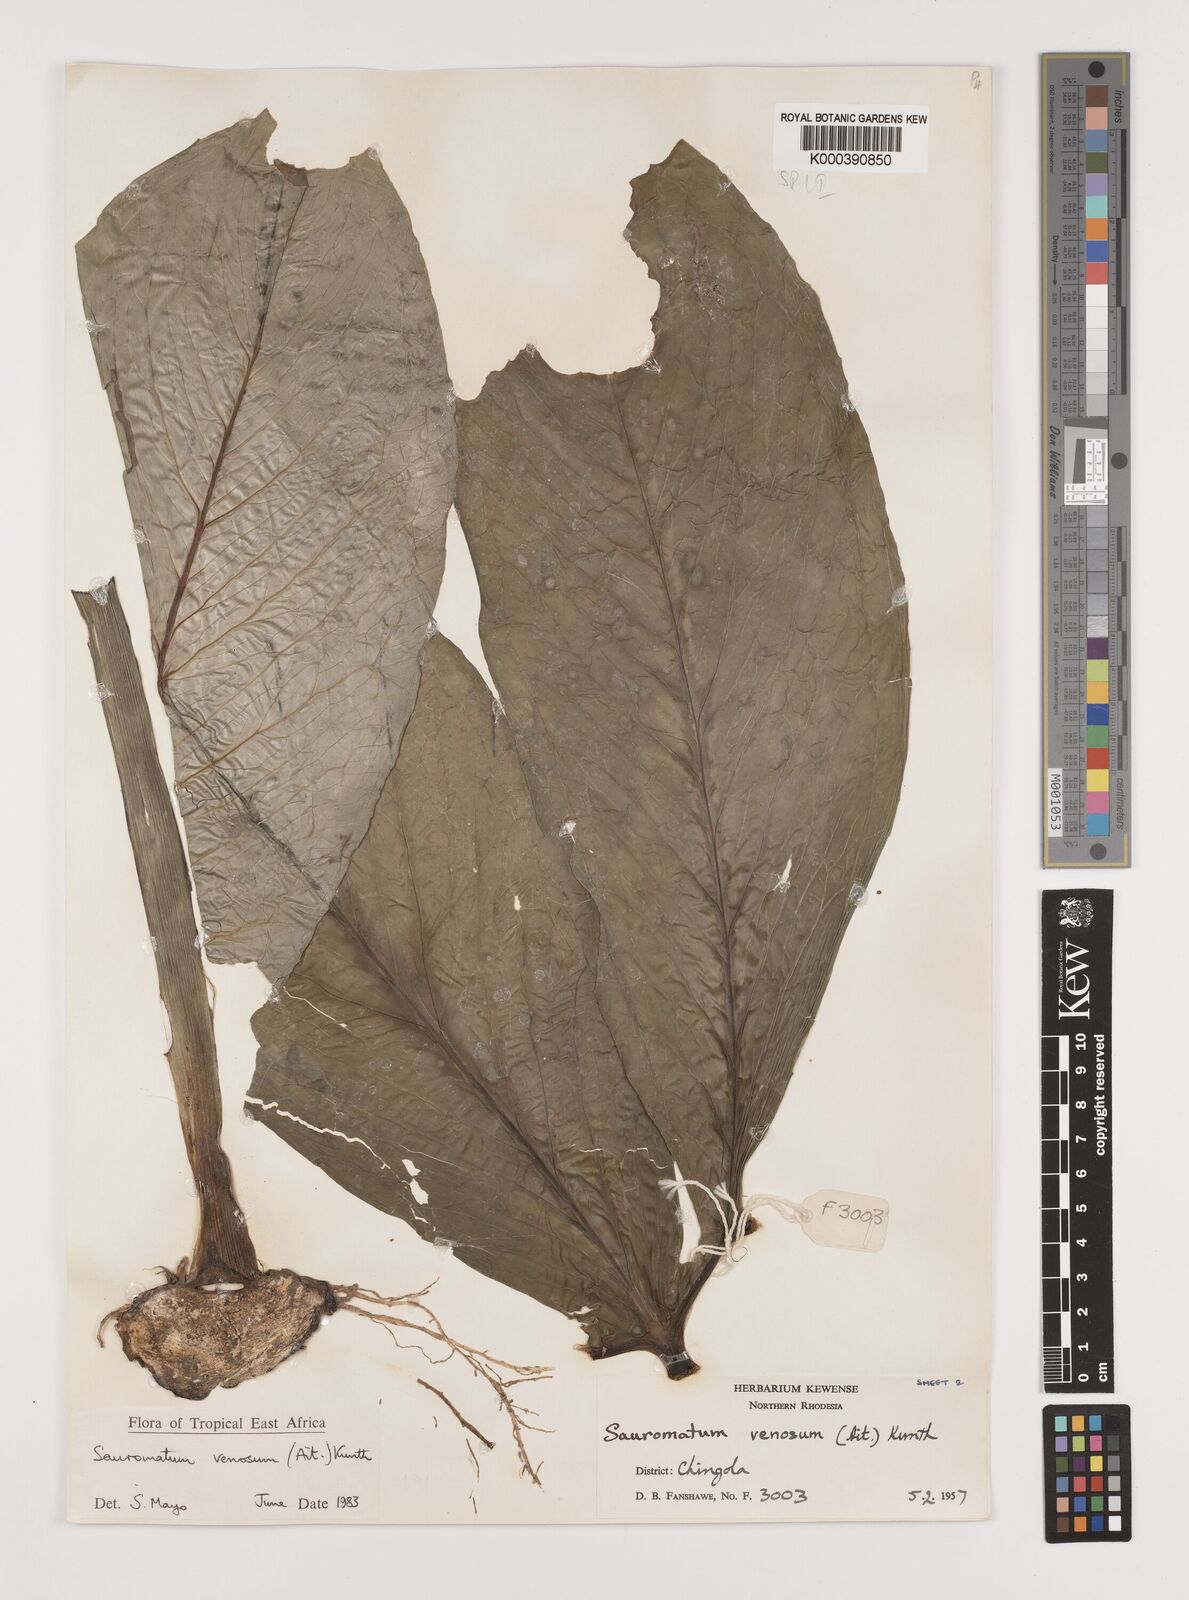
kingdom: Plantae
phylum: Tracheophyta
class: Liliopsida
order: Alismatales
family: Araceae
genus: Sauromatum
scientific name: Sauromatum venosum
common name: Voodoo lily
